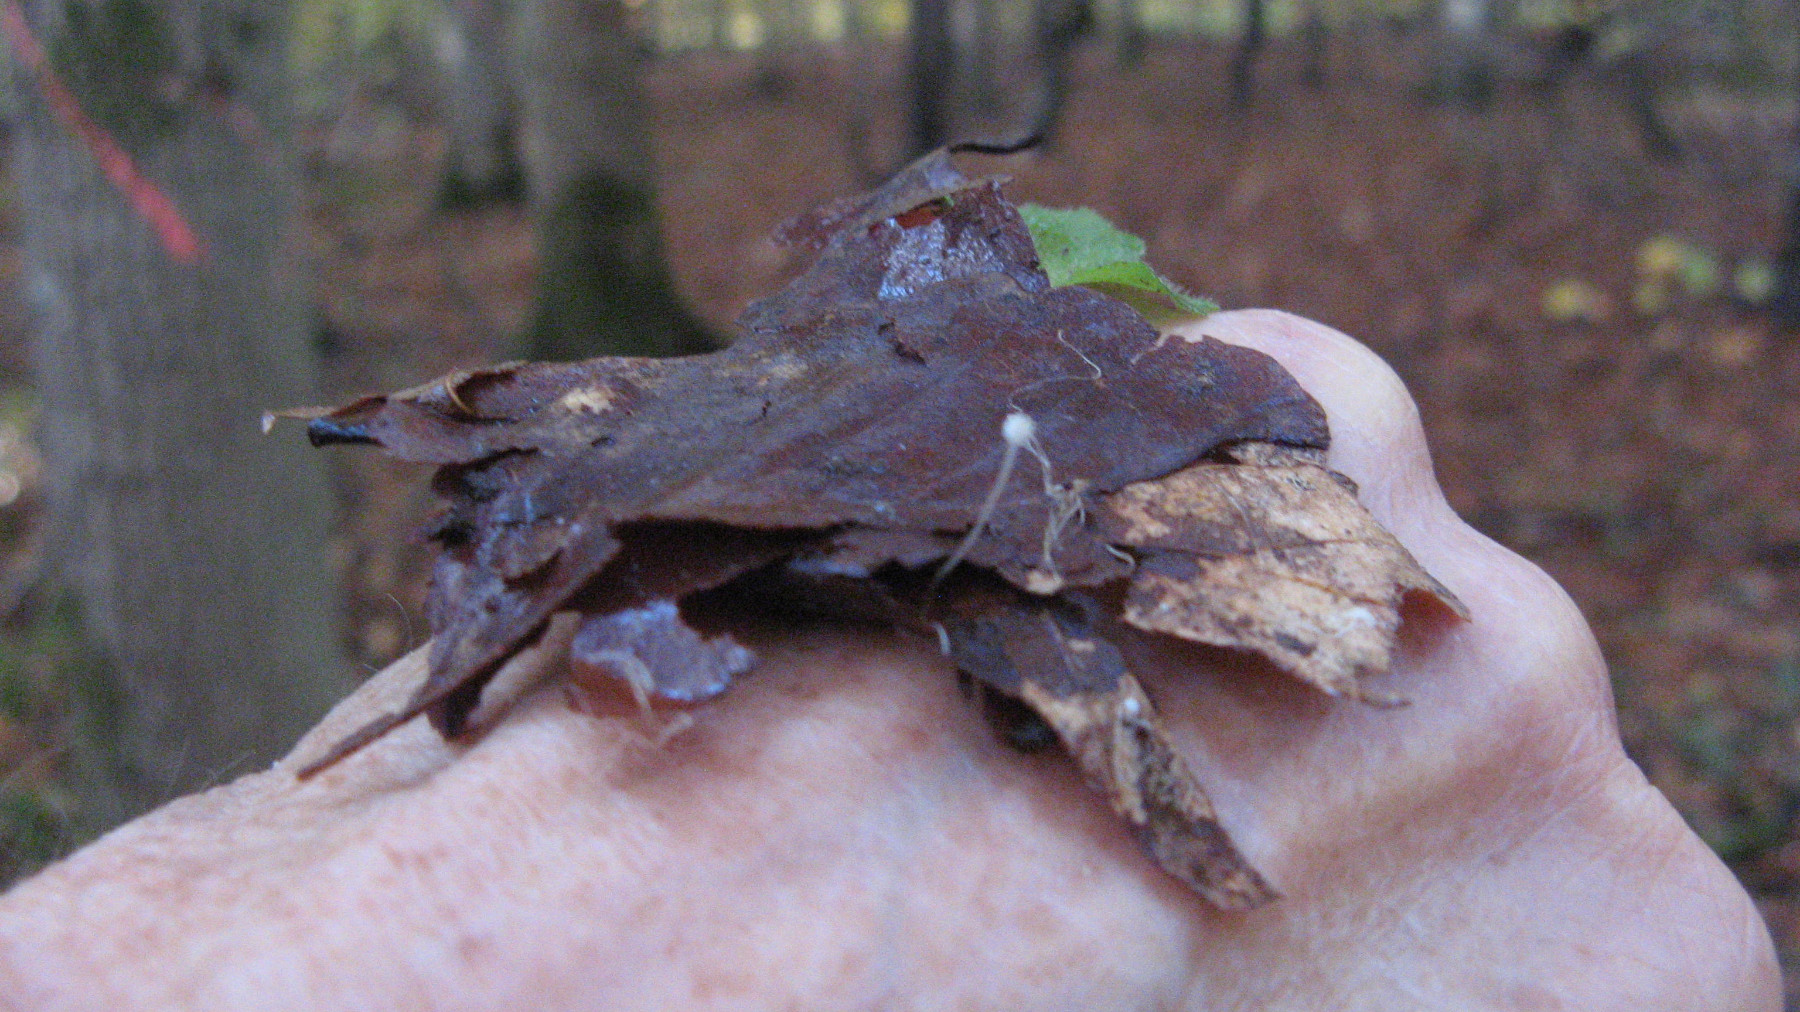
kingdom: Fungi
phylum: Basidiomycota
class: Agaricomycetes
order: Agaricales
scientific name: Agaricales
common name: champignonordenen
